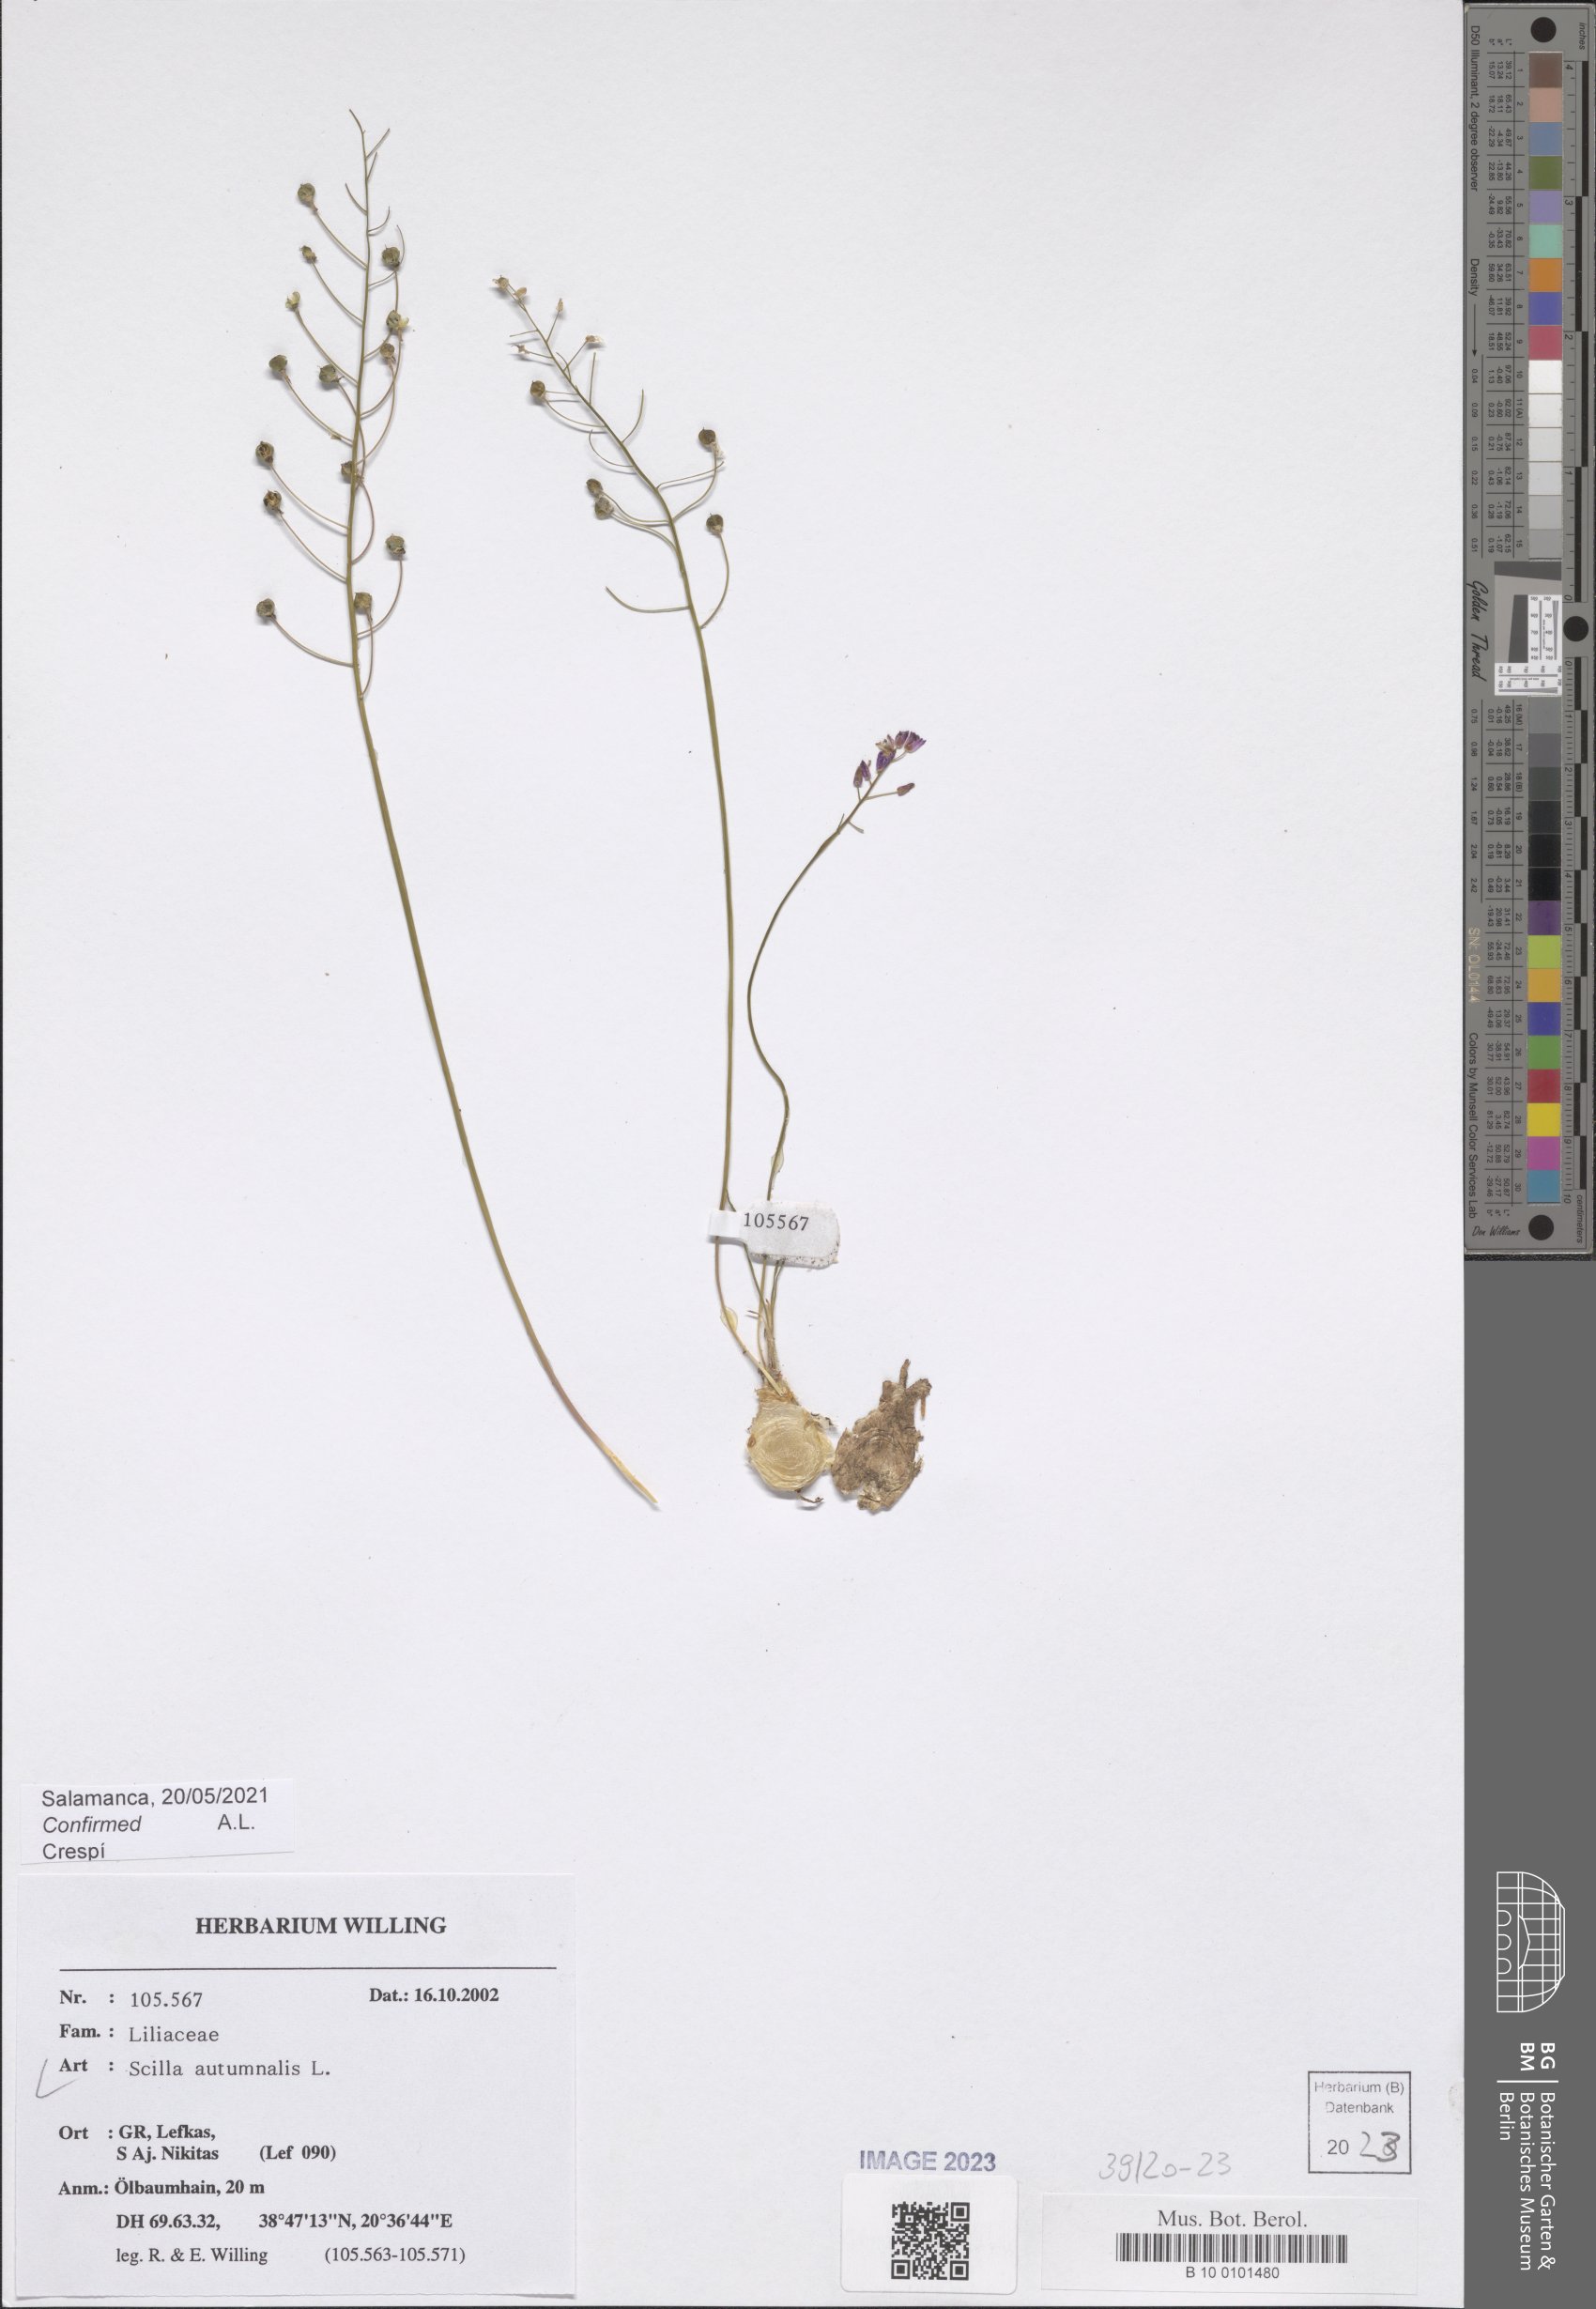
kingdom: Plantae
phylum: Tracheophyta
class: Liliopsida
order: Asparagales
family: Asparagaceae
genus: Prospero
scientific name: Prospero autumnale
